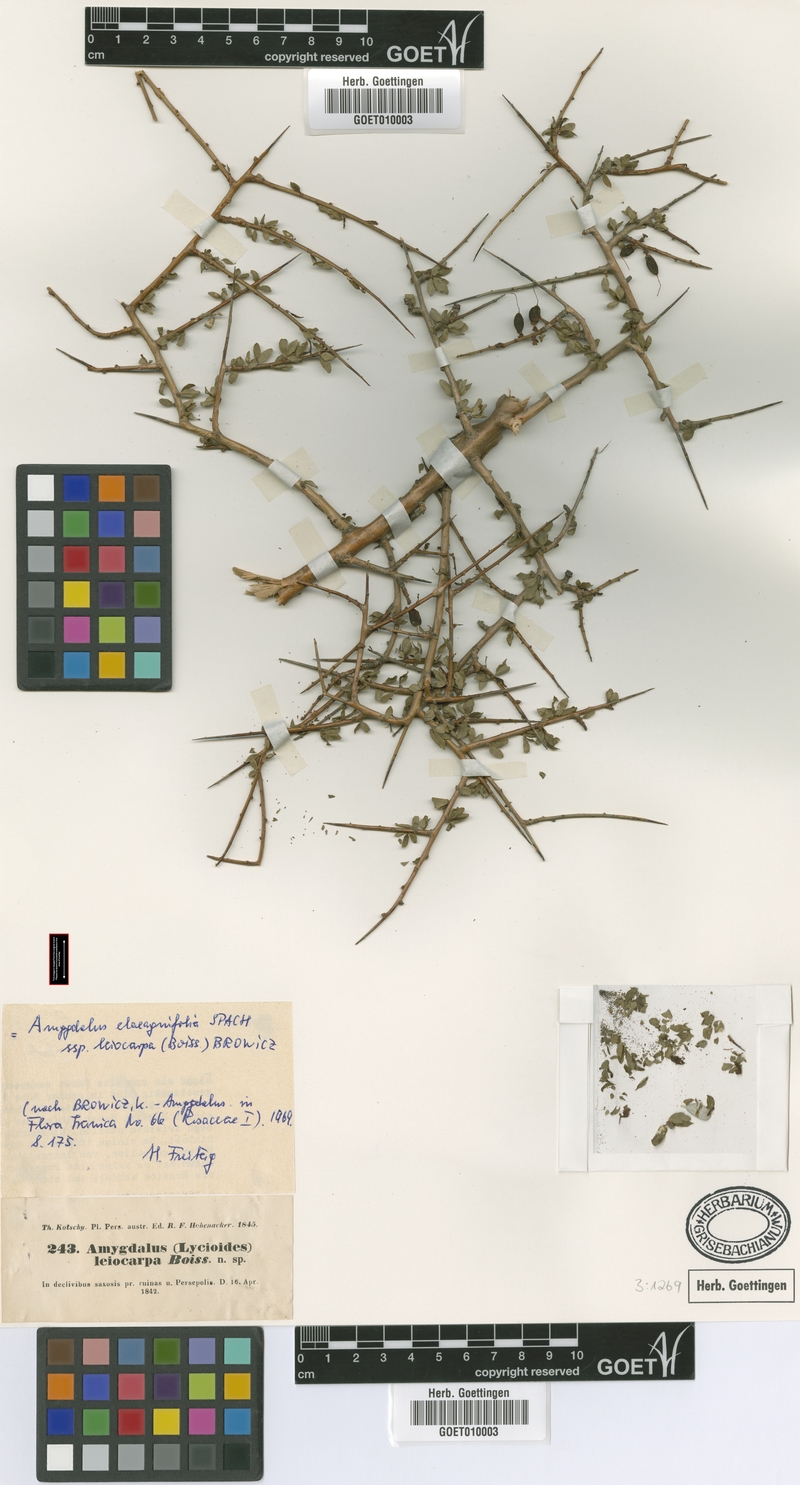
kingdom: Plantae
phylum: Tracheophyta
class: Magnoliopsida
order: Rosales
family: Rosaceae
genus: Prunus
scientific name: Prunus elaeagnifolia
